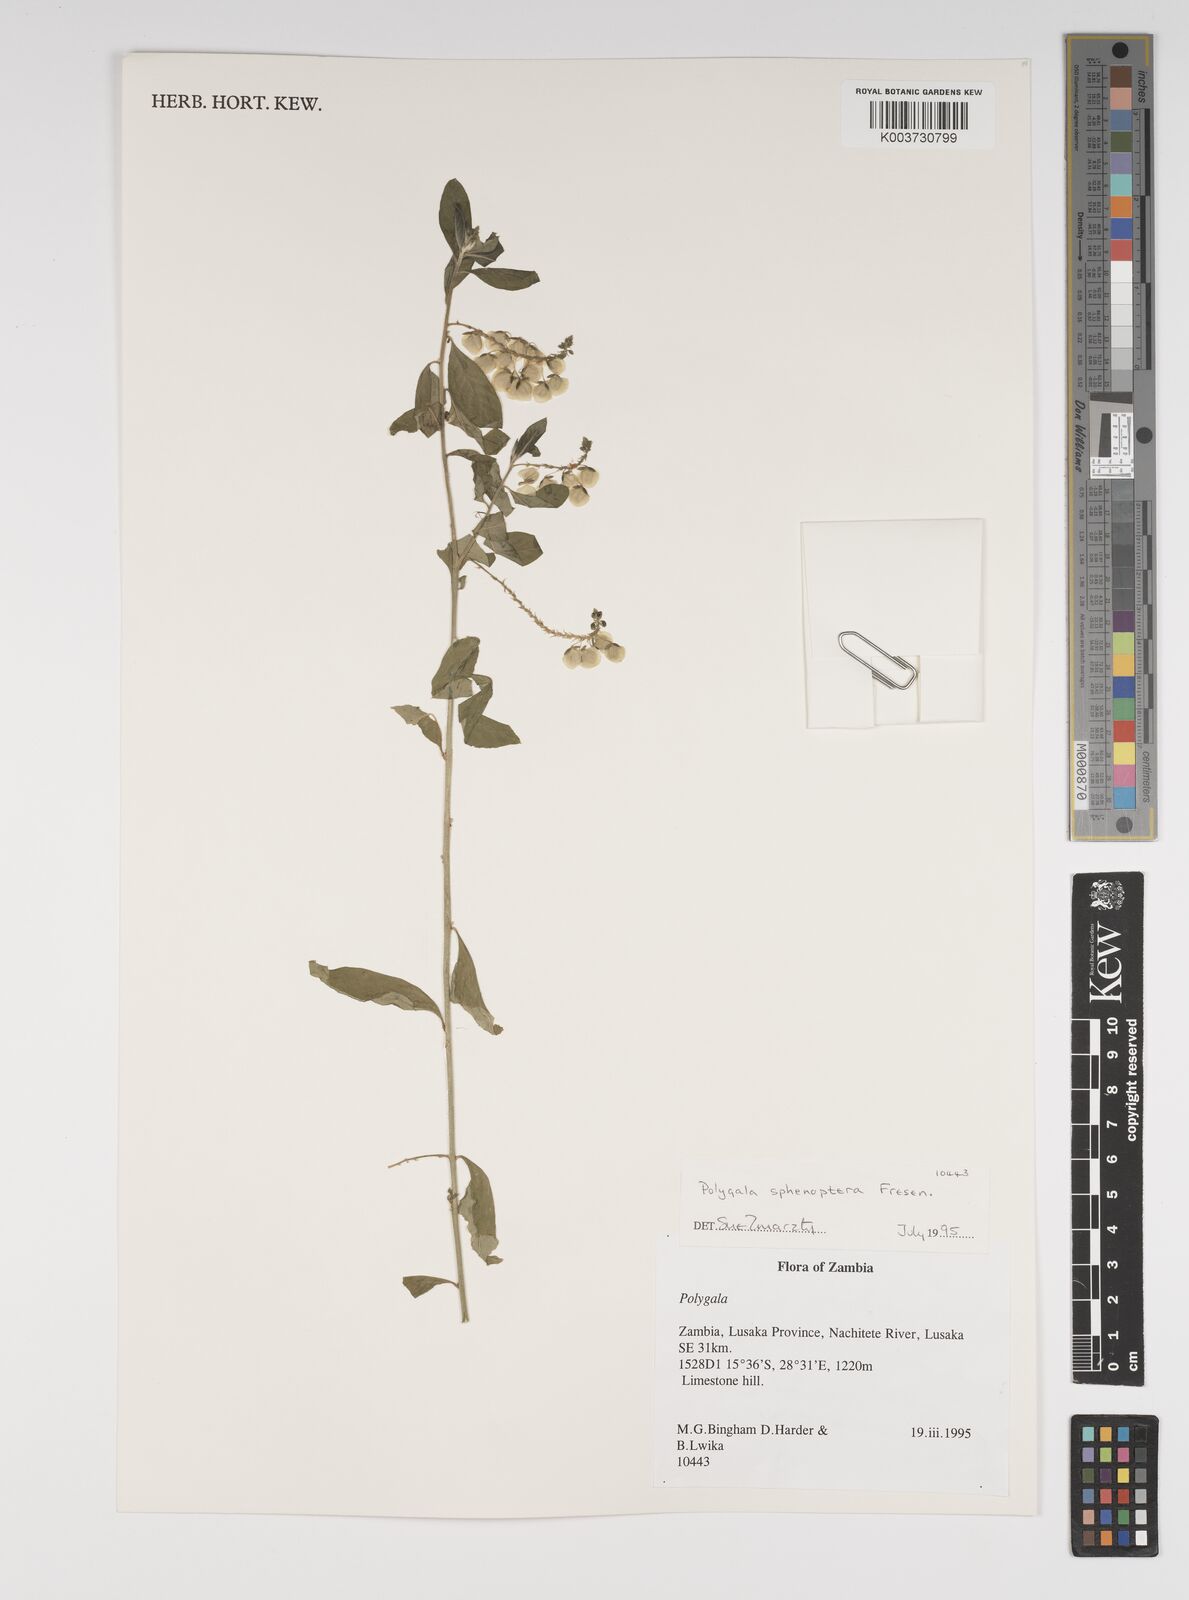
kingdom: Plantae
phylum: Tracheophyta
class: Magnoliopsida
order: Fabales
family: Polygalaceae
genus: Polygala
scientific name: Polygala sphenoptera
